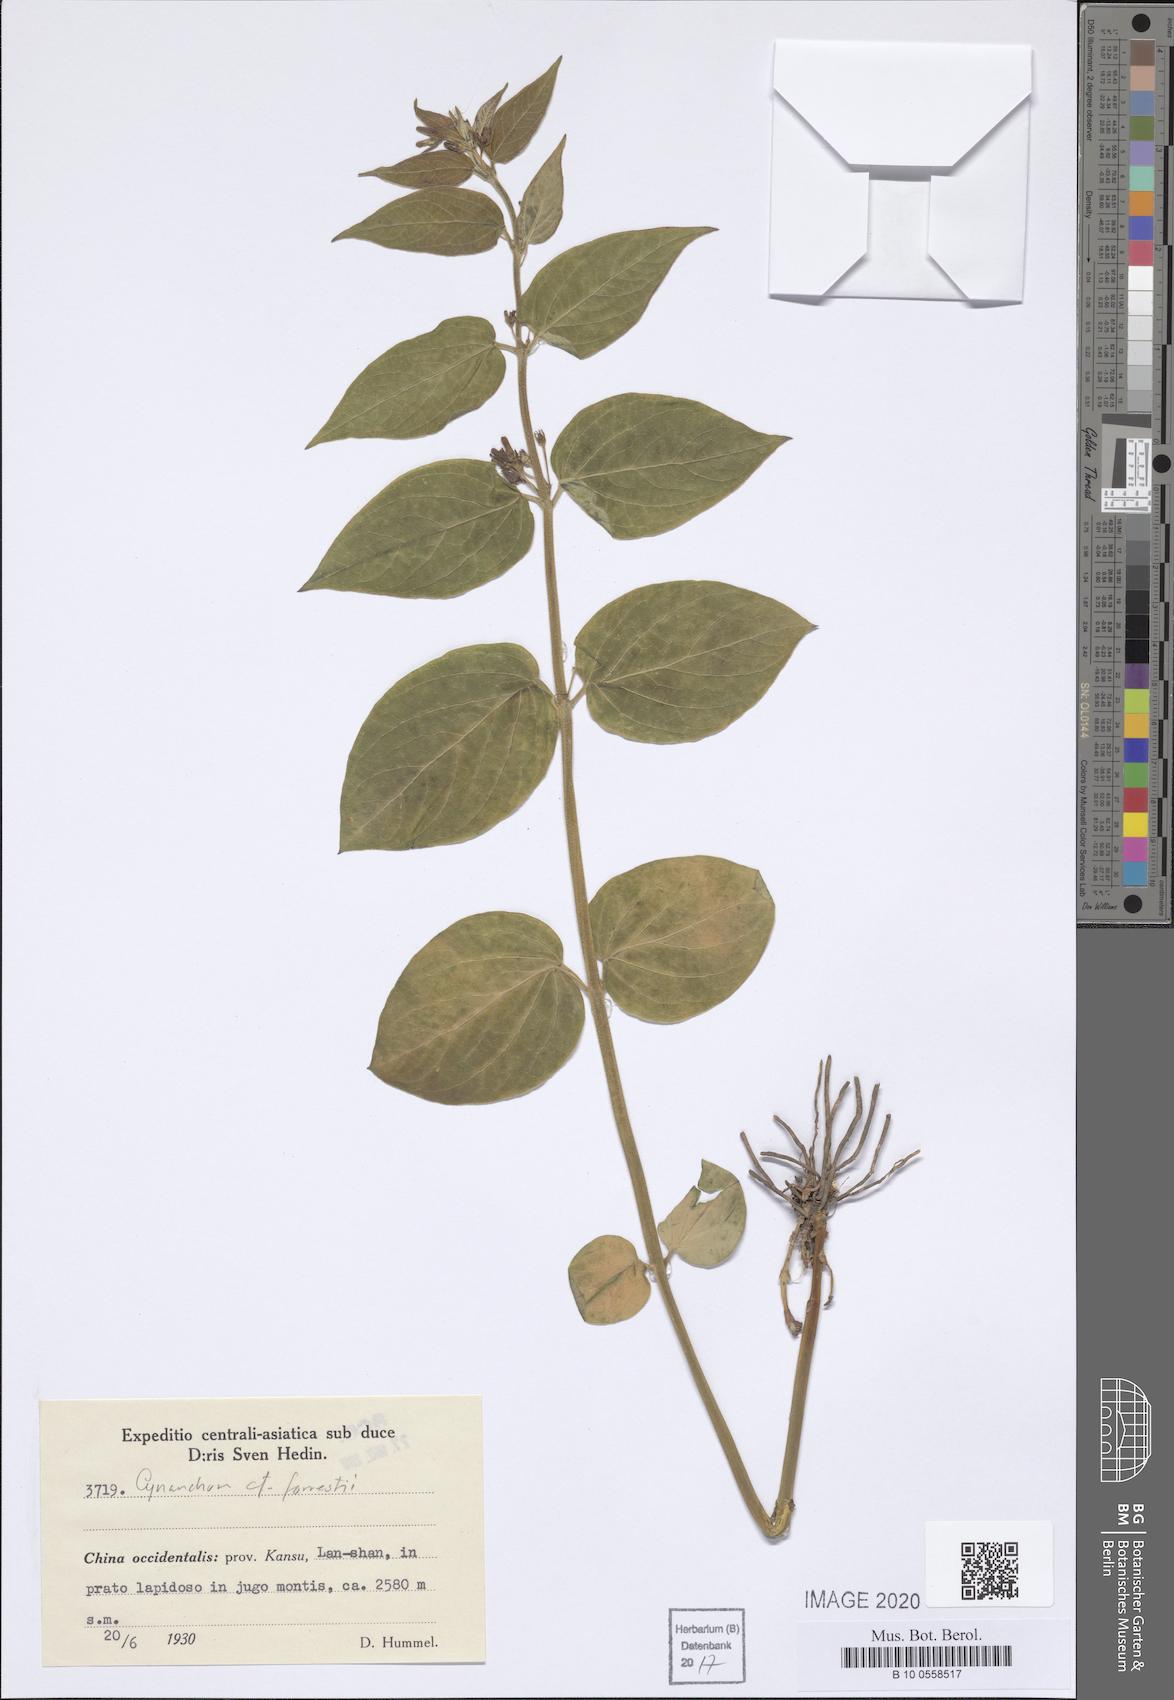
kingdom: Plantae
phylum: Tracheophyta
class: Magnoliopsida
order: Gentianales
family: Apocynaceae
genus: Vincetoxicum
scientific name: Vincetoxicum forrestii
